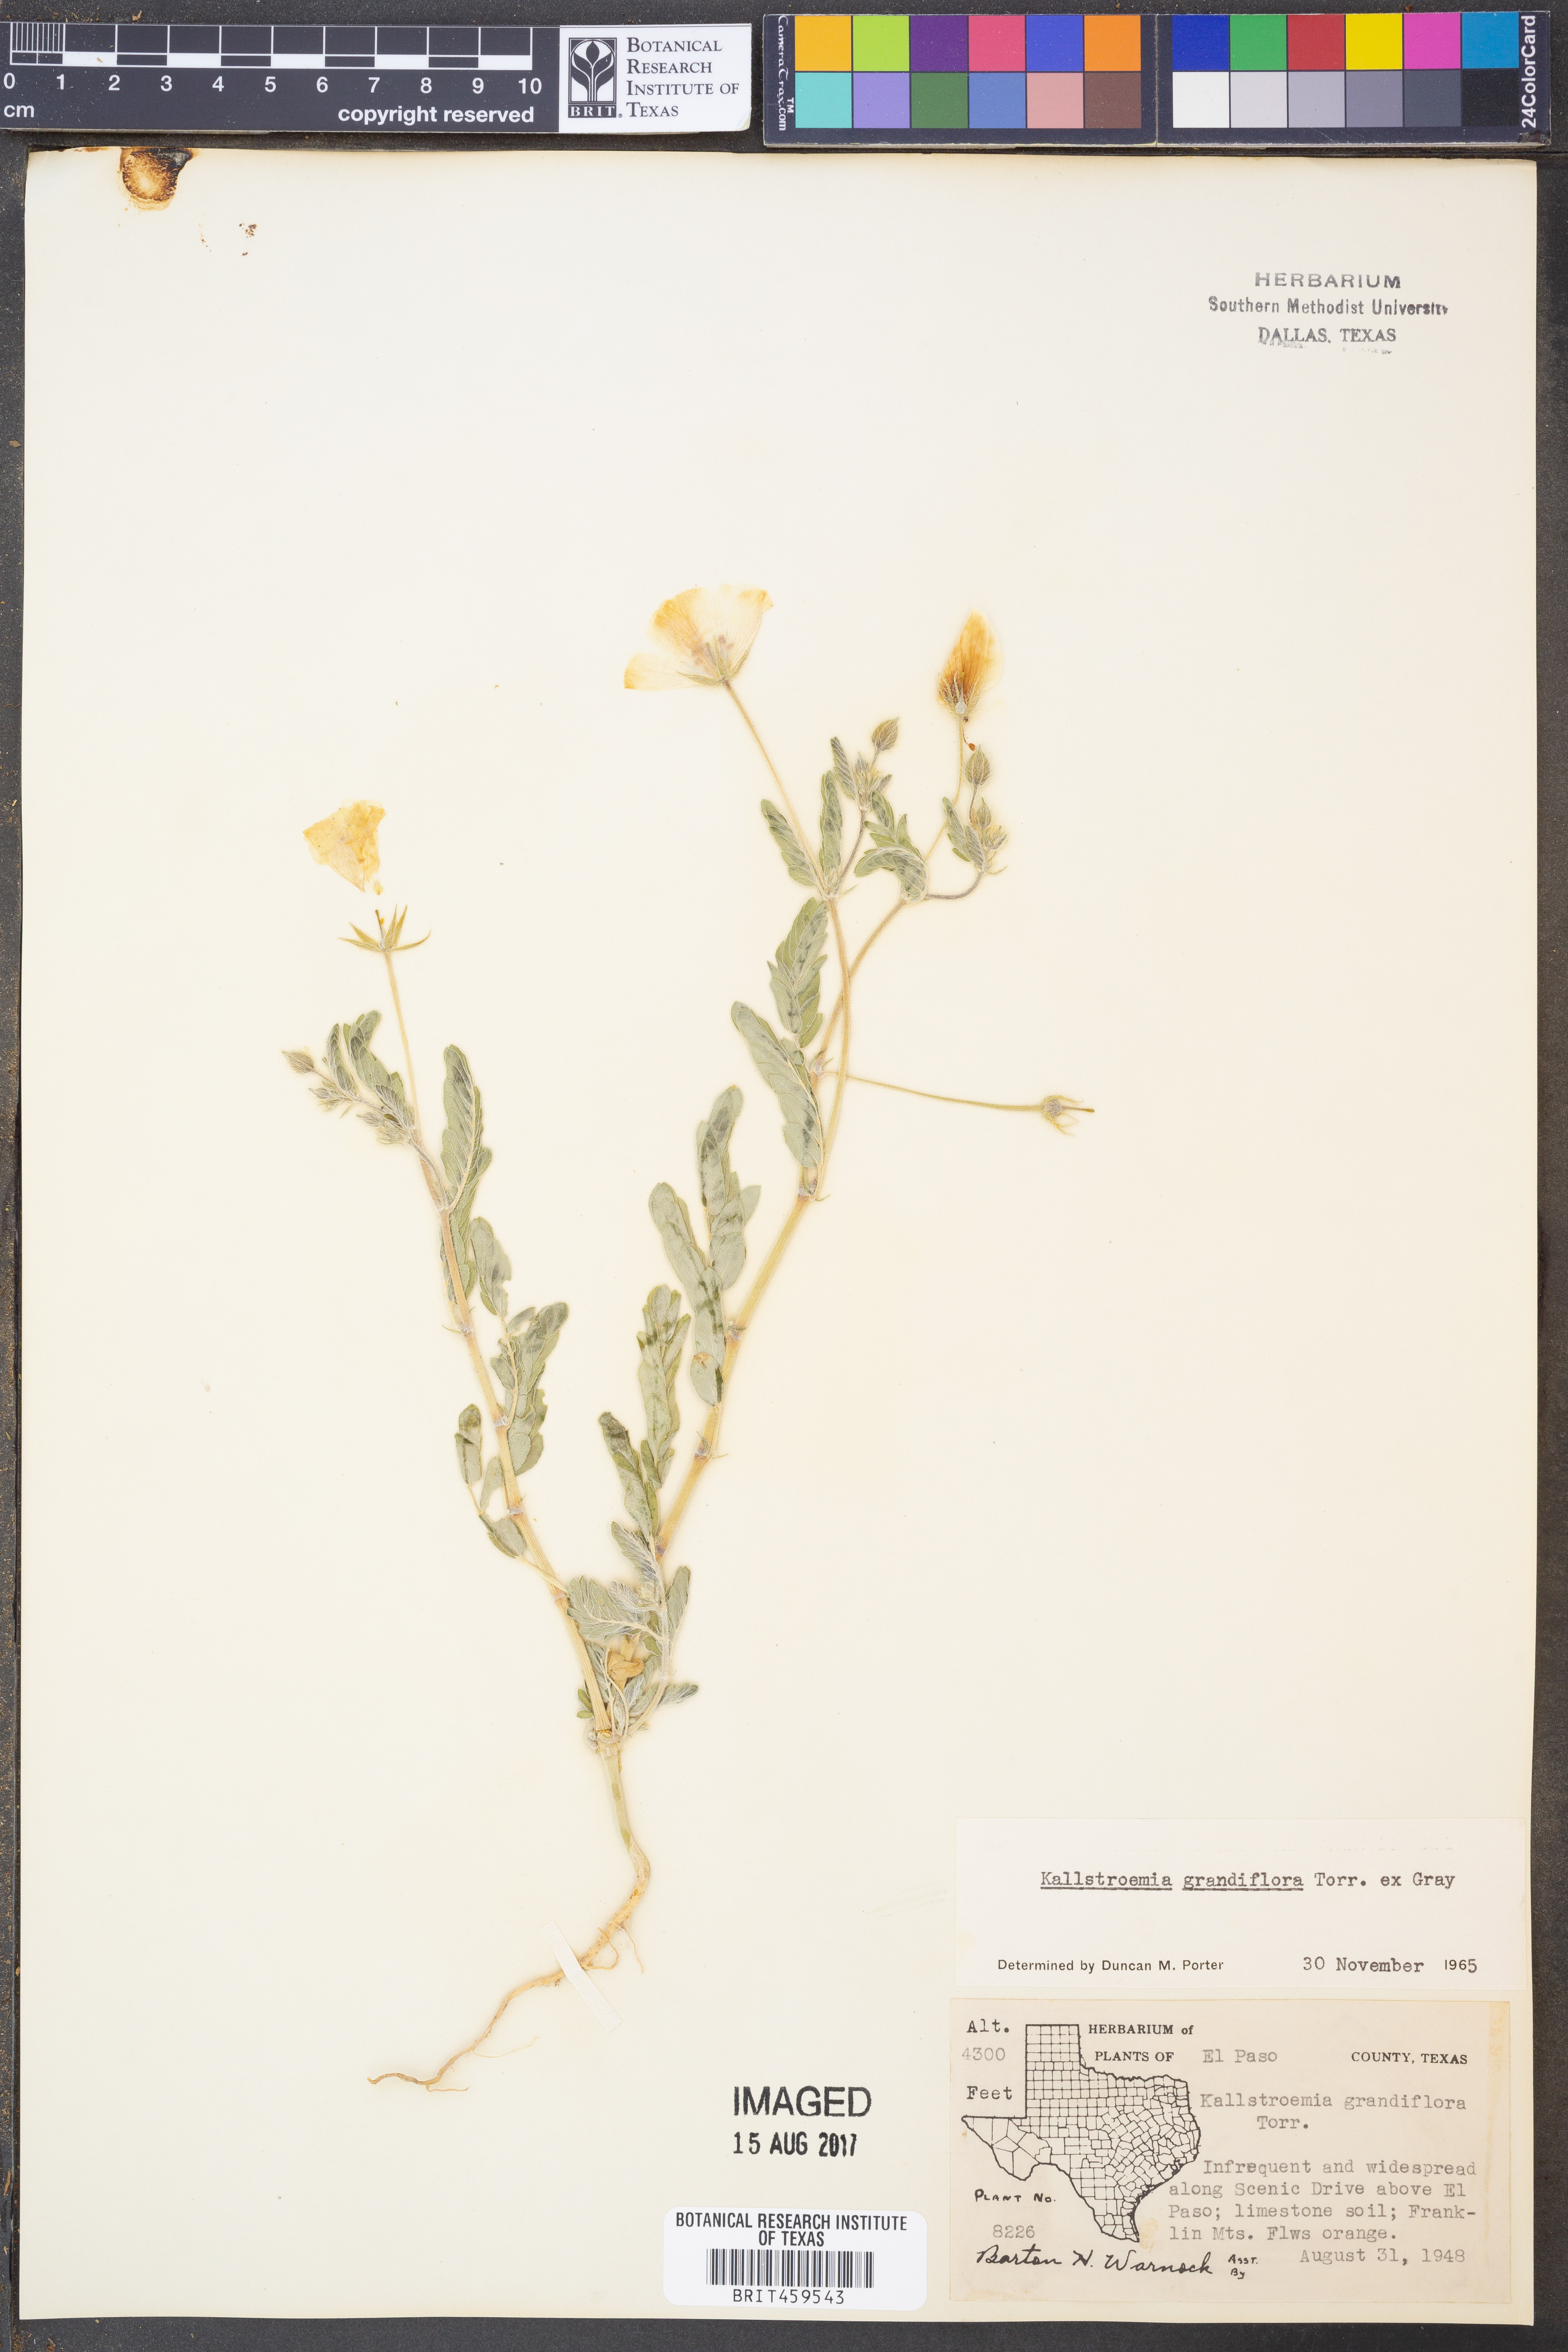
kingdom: Plantae
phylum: Tracheophyta
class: Magnoliopsida
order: Zygophyllales
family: Zygophyllaceae
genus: Kallstroemia
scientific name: Kallstroemia grandiflora
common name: Arizona-poppy
